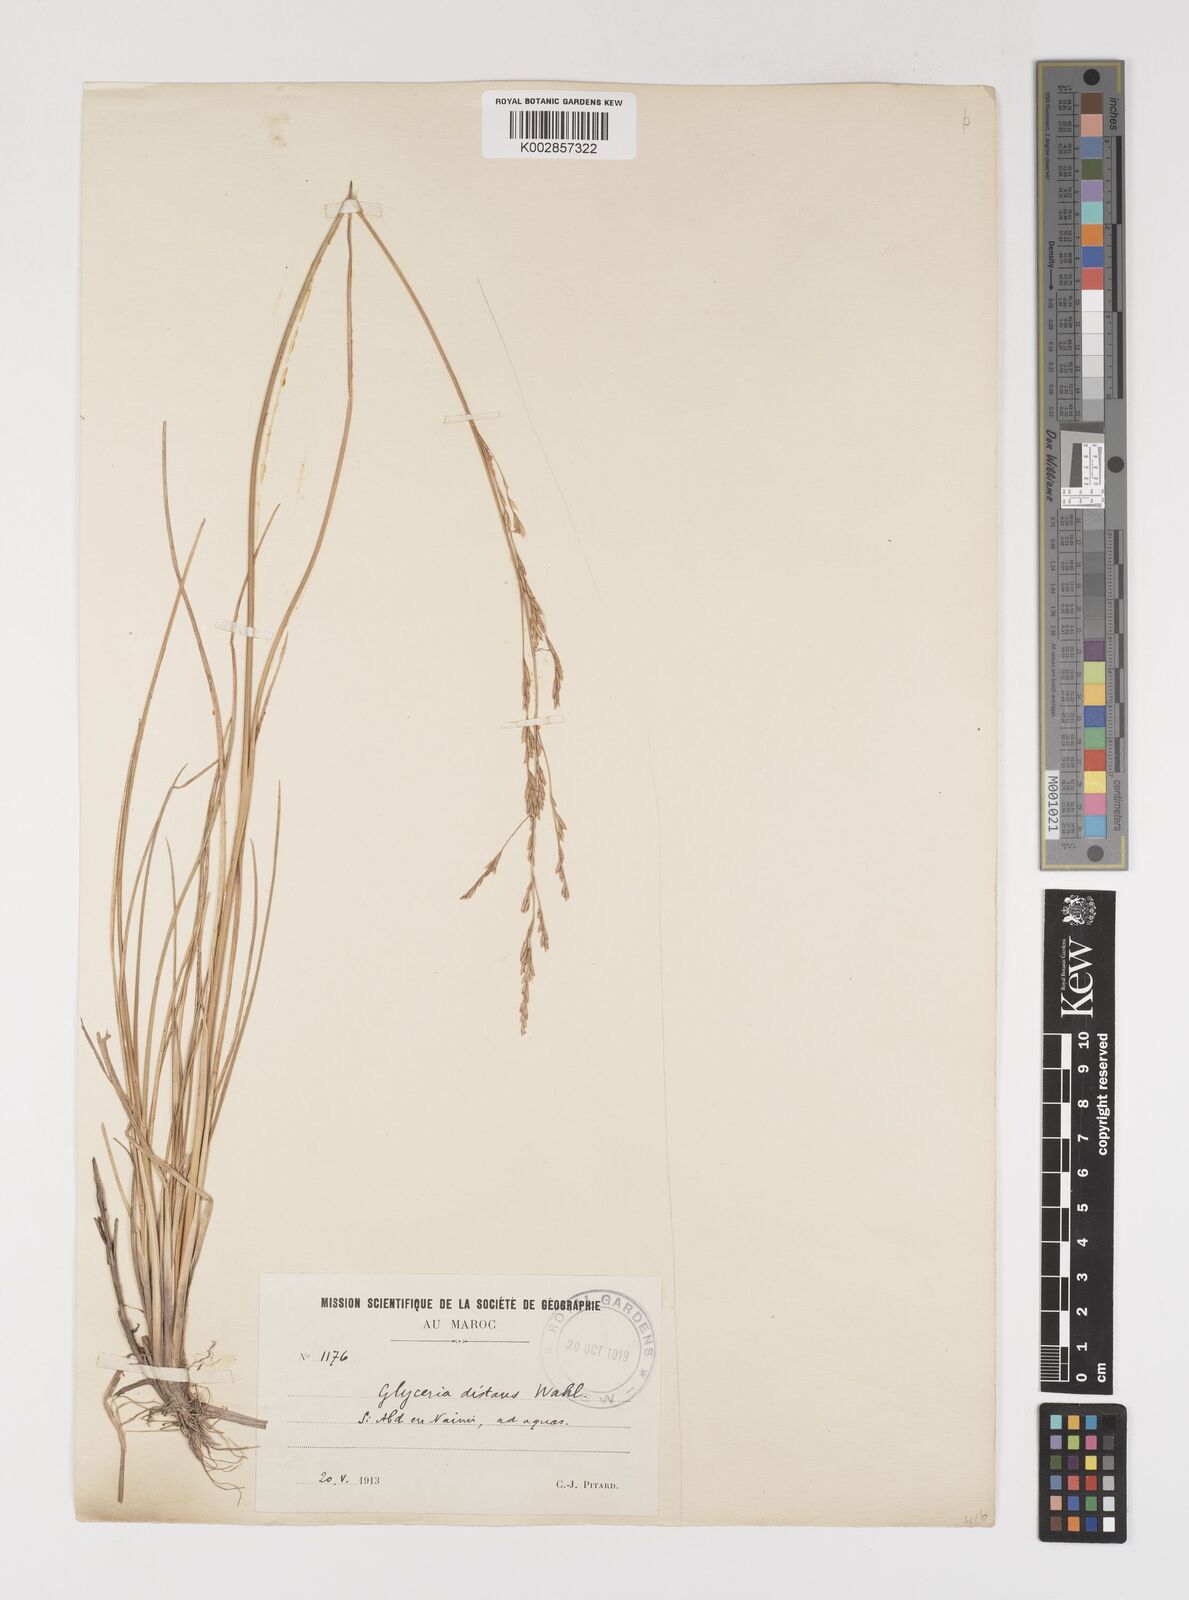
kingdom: Plantae
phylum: Tracheophyta
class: Liliopsida
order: Poales
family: Poaceae
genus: Puccinellia
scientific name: Puccinellia distans
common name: Weeping alkaligrass
